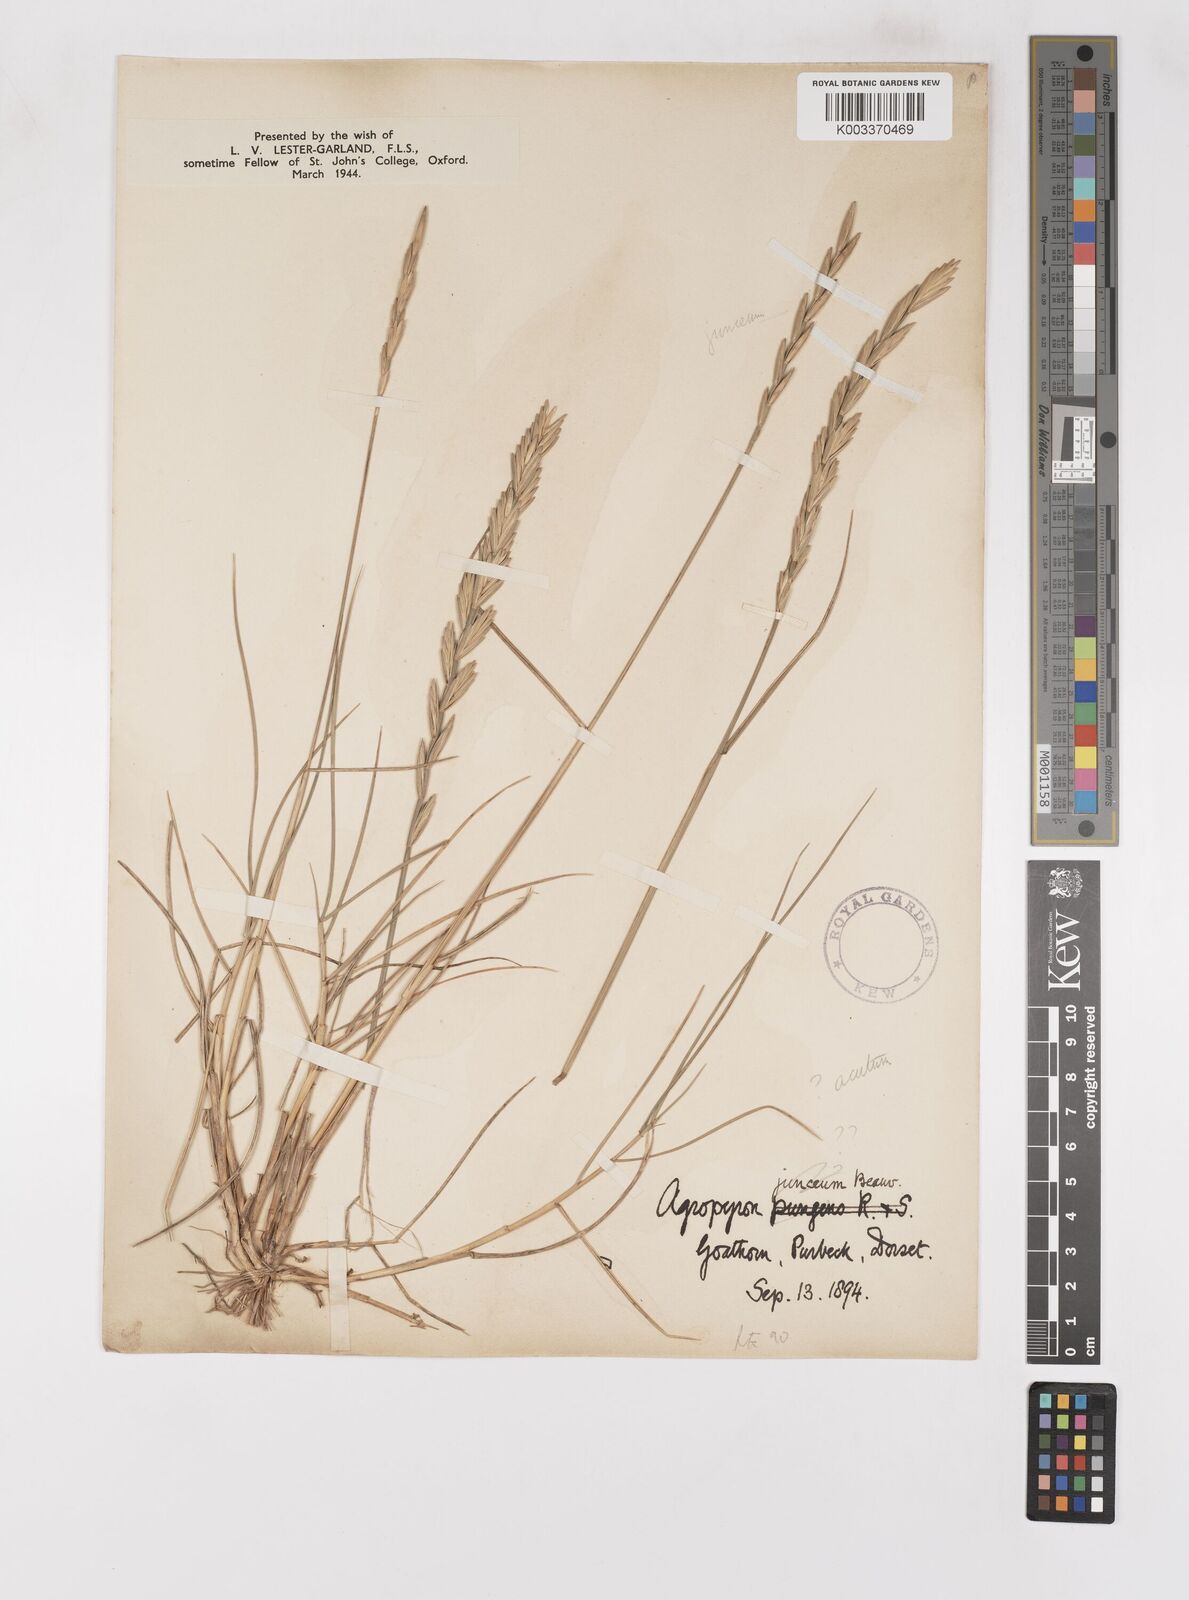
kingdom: Plantae
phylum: Tracheophyta
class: Liliopsida
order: Poales
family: Poaceae
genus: Thinoelymus
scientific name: Thinoelymus obtusiusculus
